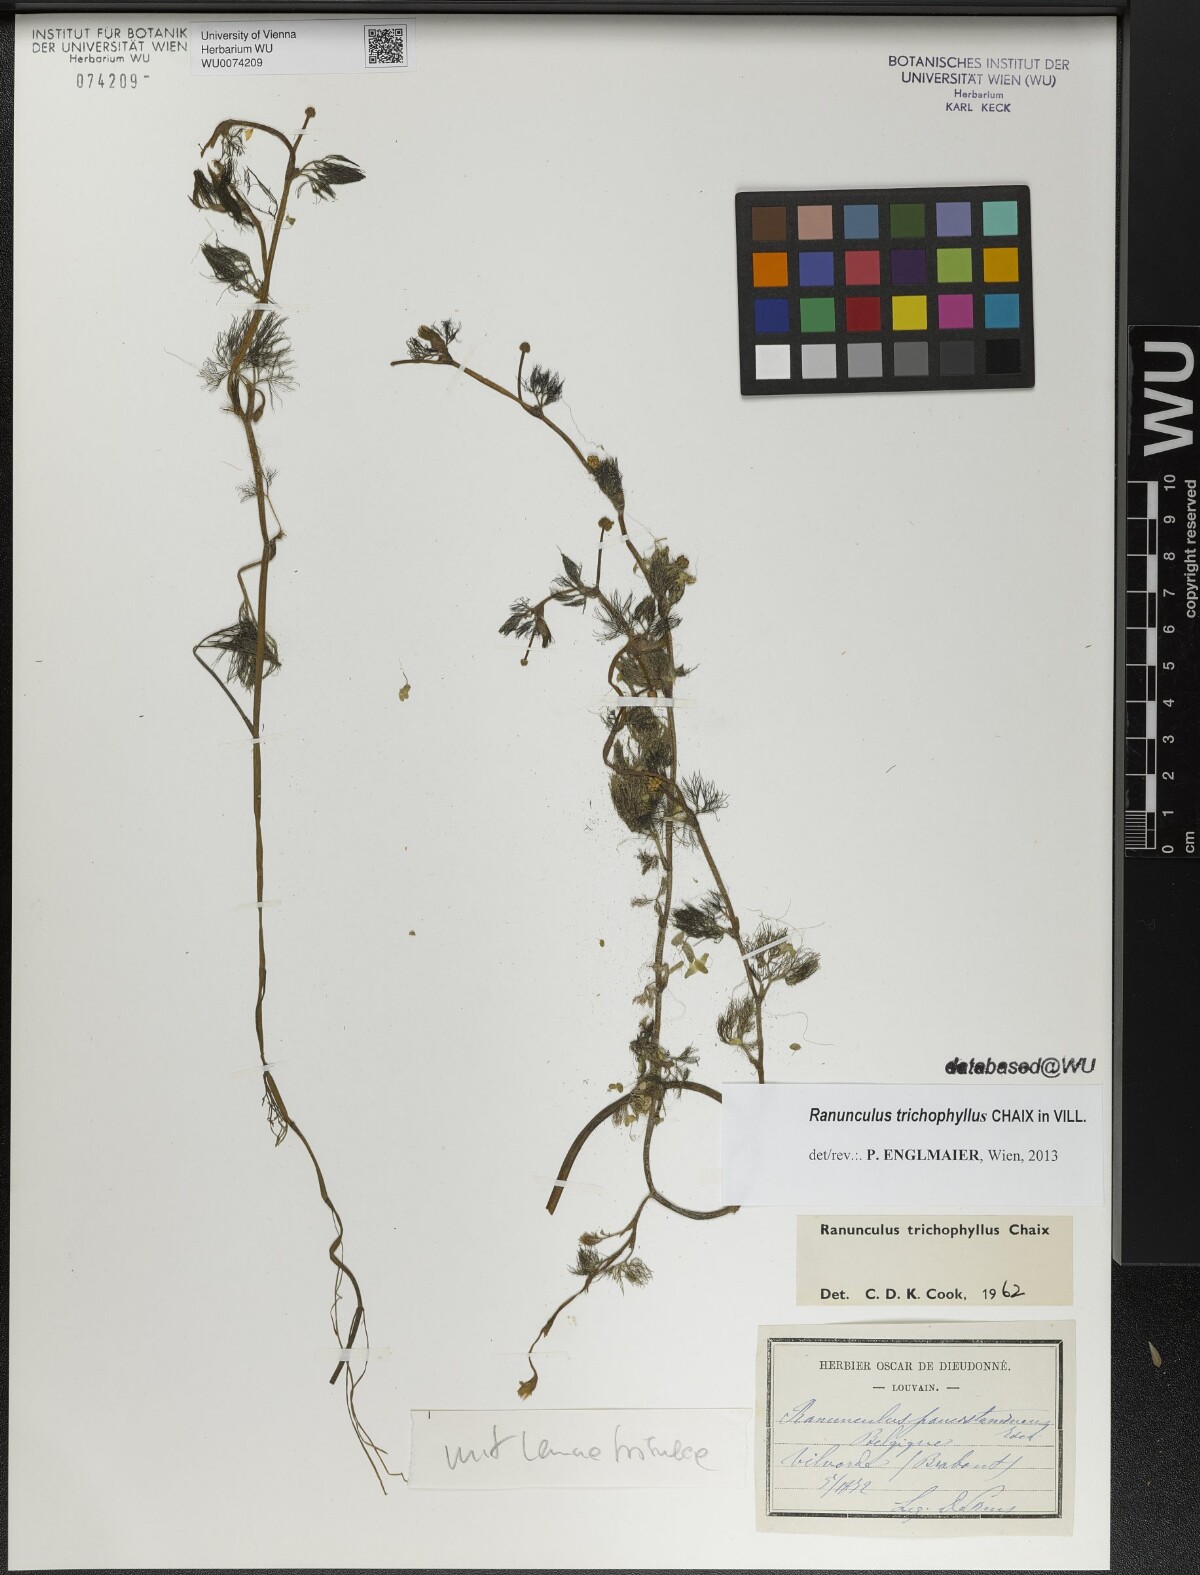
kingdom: Plantae
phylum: Tracheophyta
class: Magnoliopsida
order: Ranunculales
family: Ranunculaceae
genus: Ranunculus
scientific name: Ranunculus trichophyllus
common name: Thread-leaved water-crowfoot
